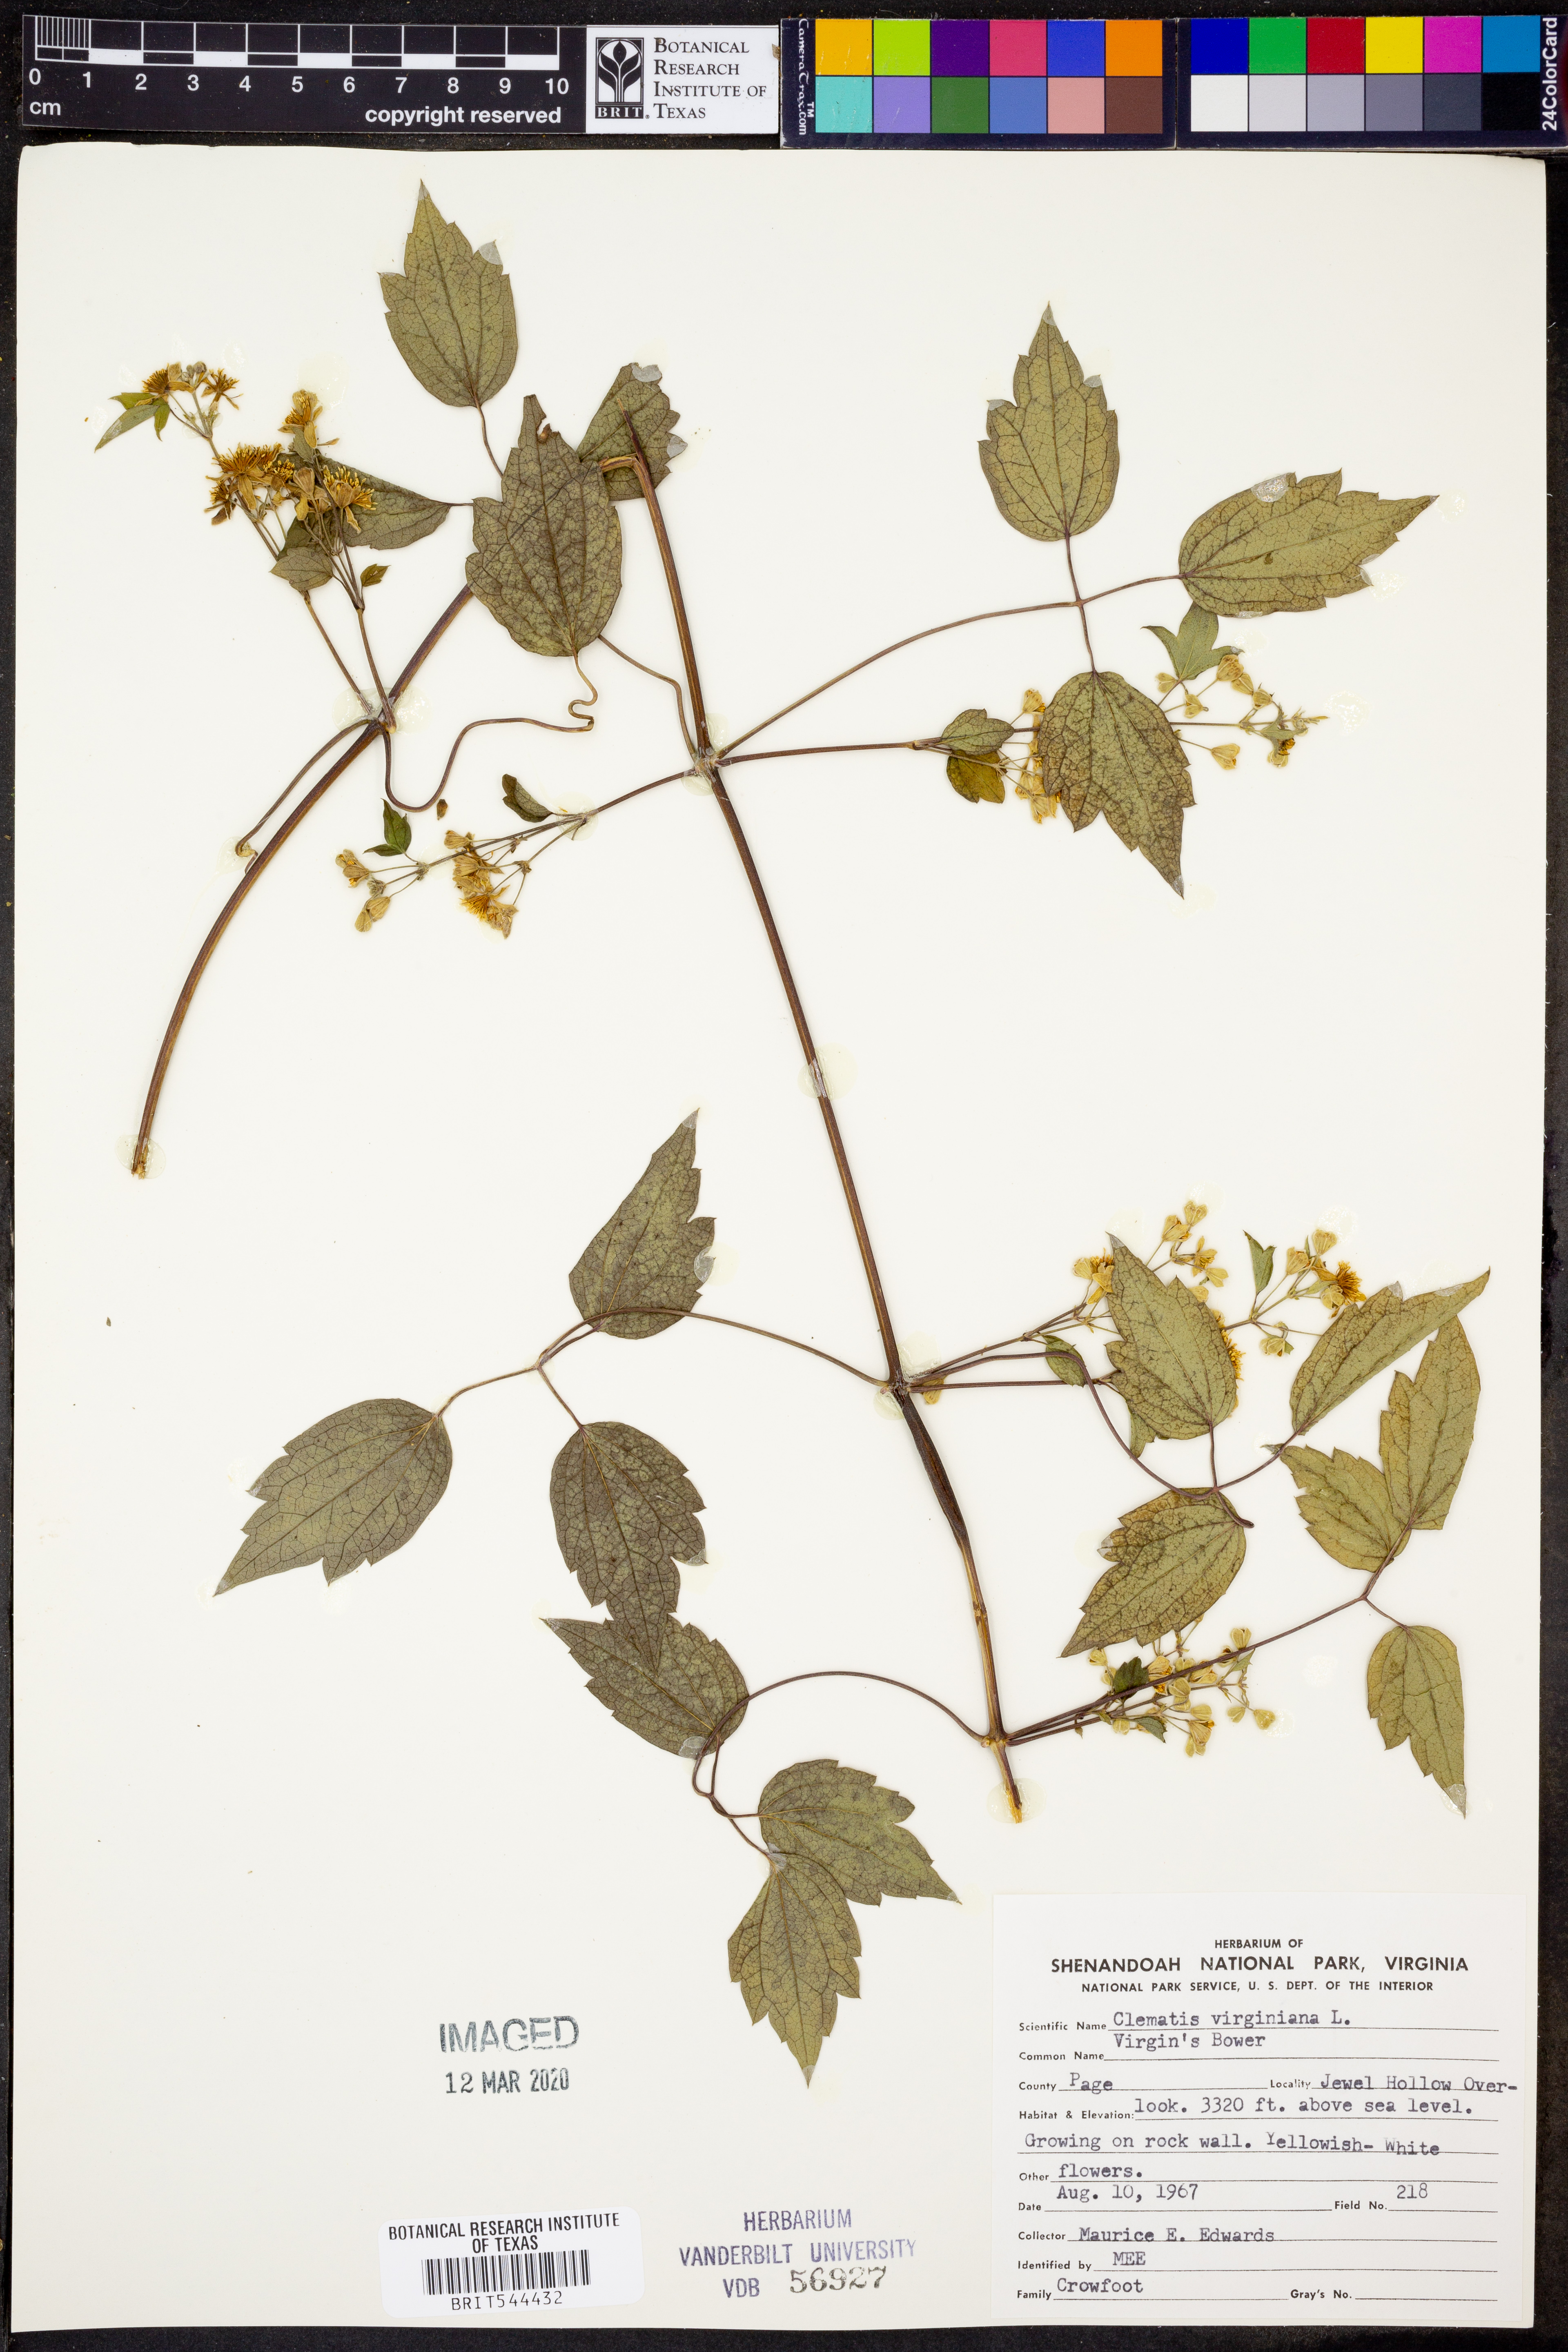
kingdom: Plantae
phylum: Tracheophyta
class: Magnoliopsida
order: Ranunculales
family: Ranunculaceae
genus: Clematis
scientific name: Clematis virginiana
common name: Virgin's-bower
